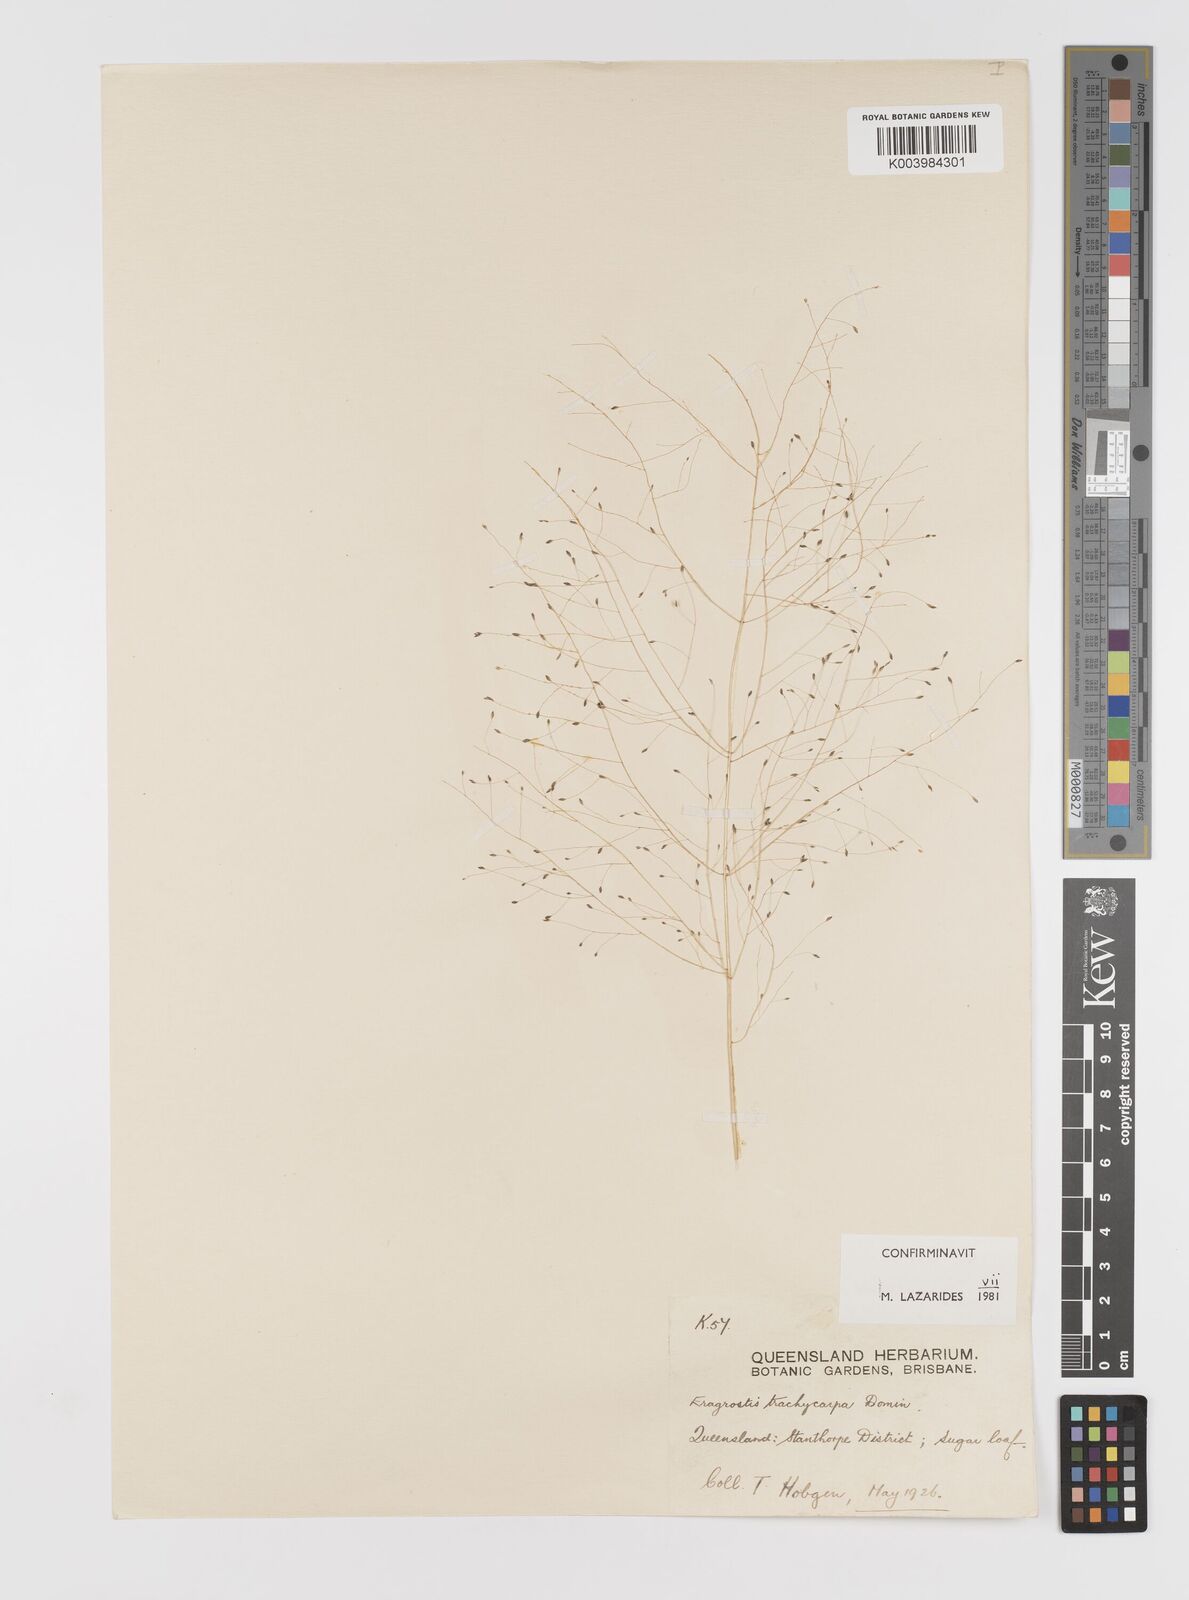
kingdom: Plantae
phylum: Tracheophyta
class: Liliopsida
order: Poales
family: Poaceae
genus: Eragrostis
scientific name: Eragrostis trachycarpa
